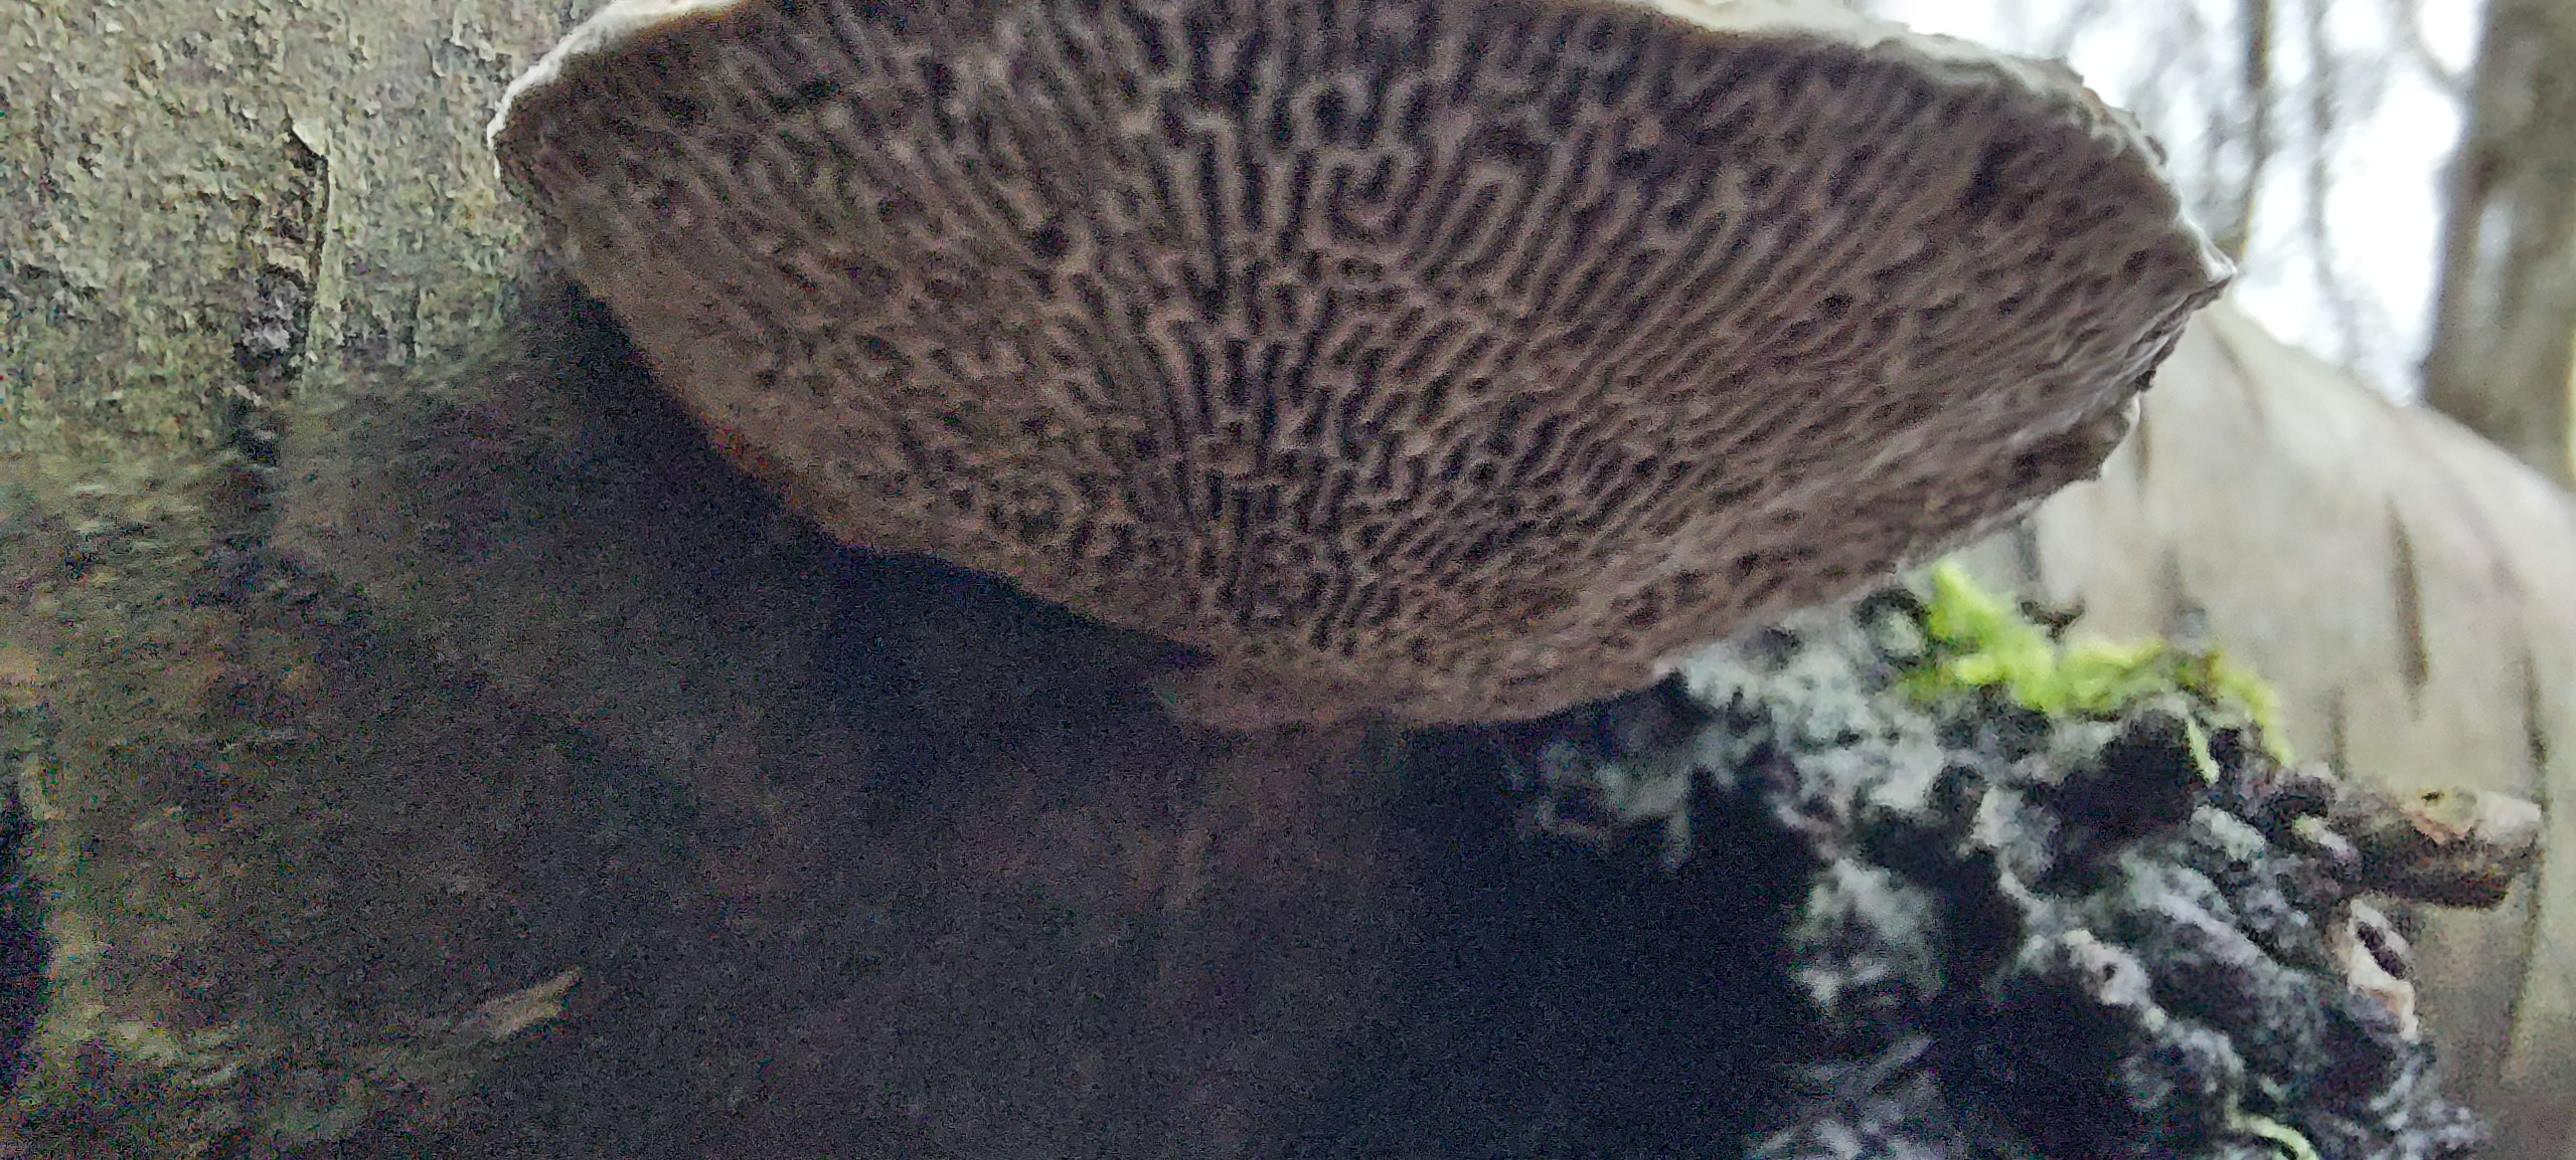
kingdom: Fungi
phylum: Basidiomycota
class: Agaricomycetes
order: Polyporales
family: Polyporaceae
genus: Daedaleopsis
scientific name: Daedaleopsis confragosa
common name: rødmende læderporesvamp
